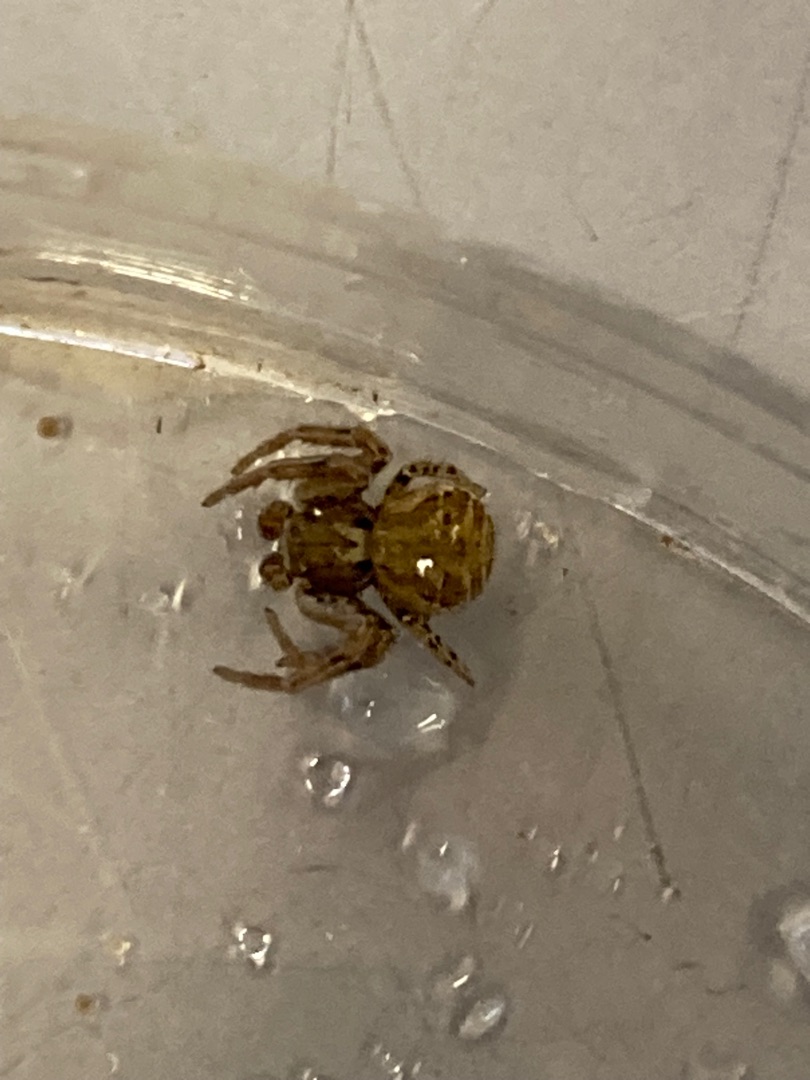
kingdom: Animalia
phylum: Arthropoda
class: Arachnida
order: Araneae
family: Thomisidae
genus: Xysticus
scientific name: Xysticus
